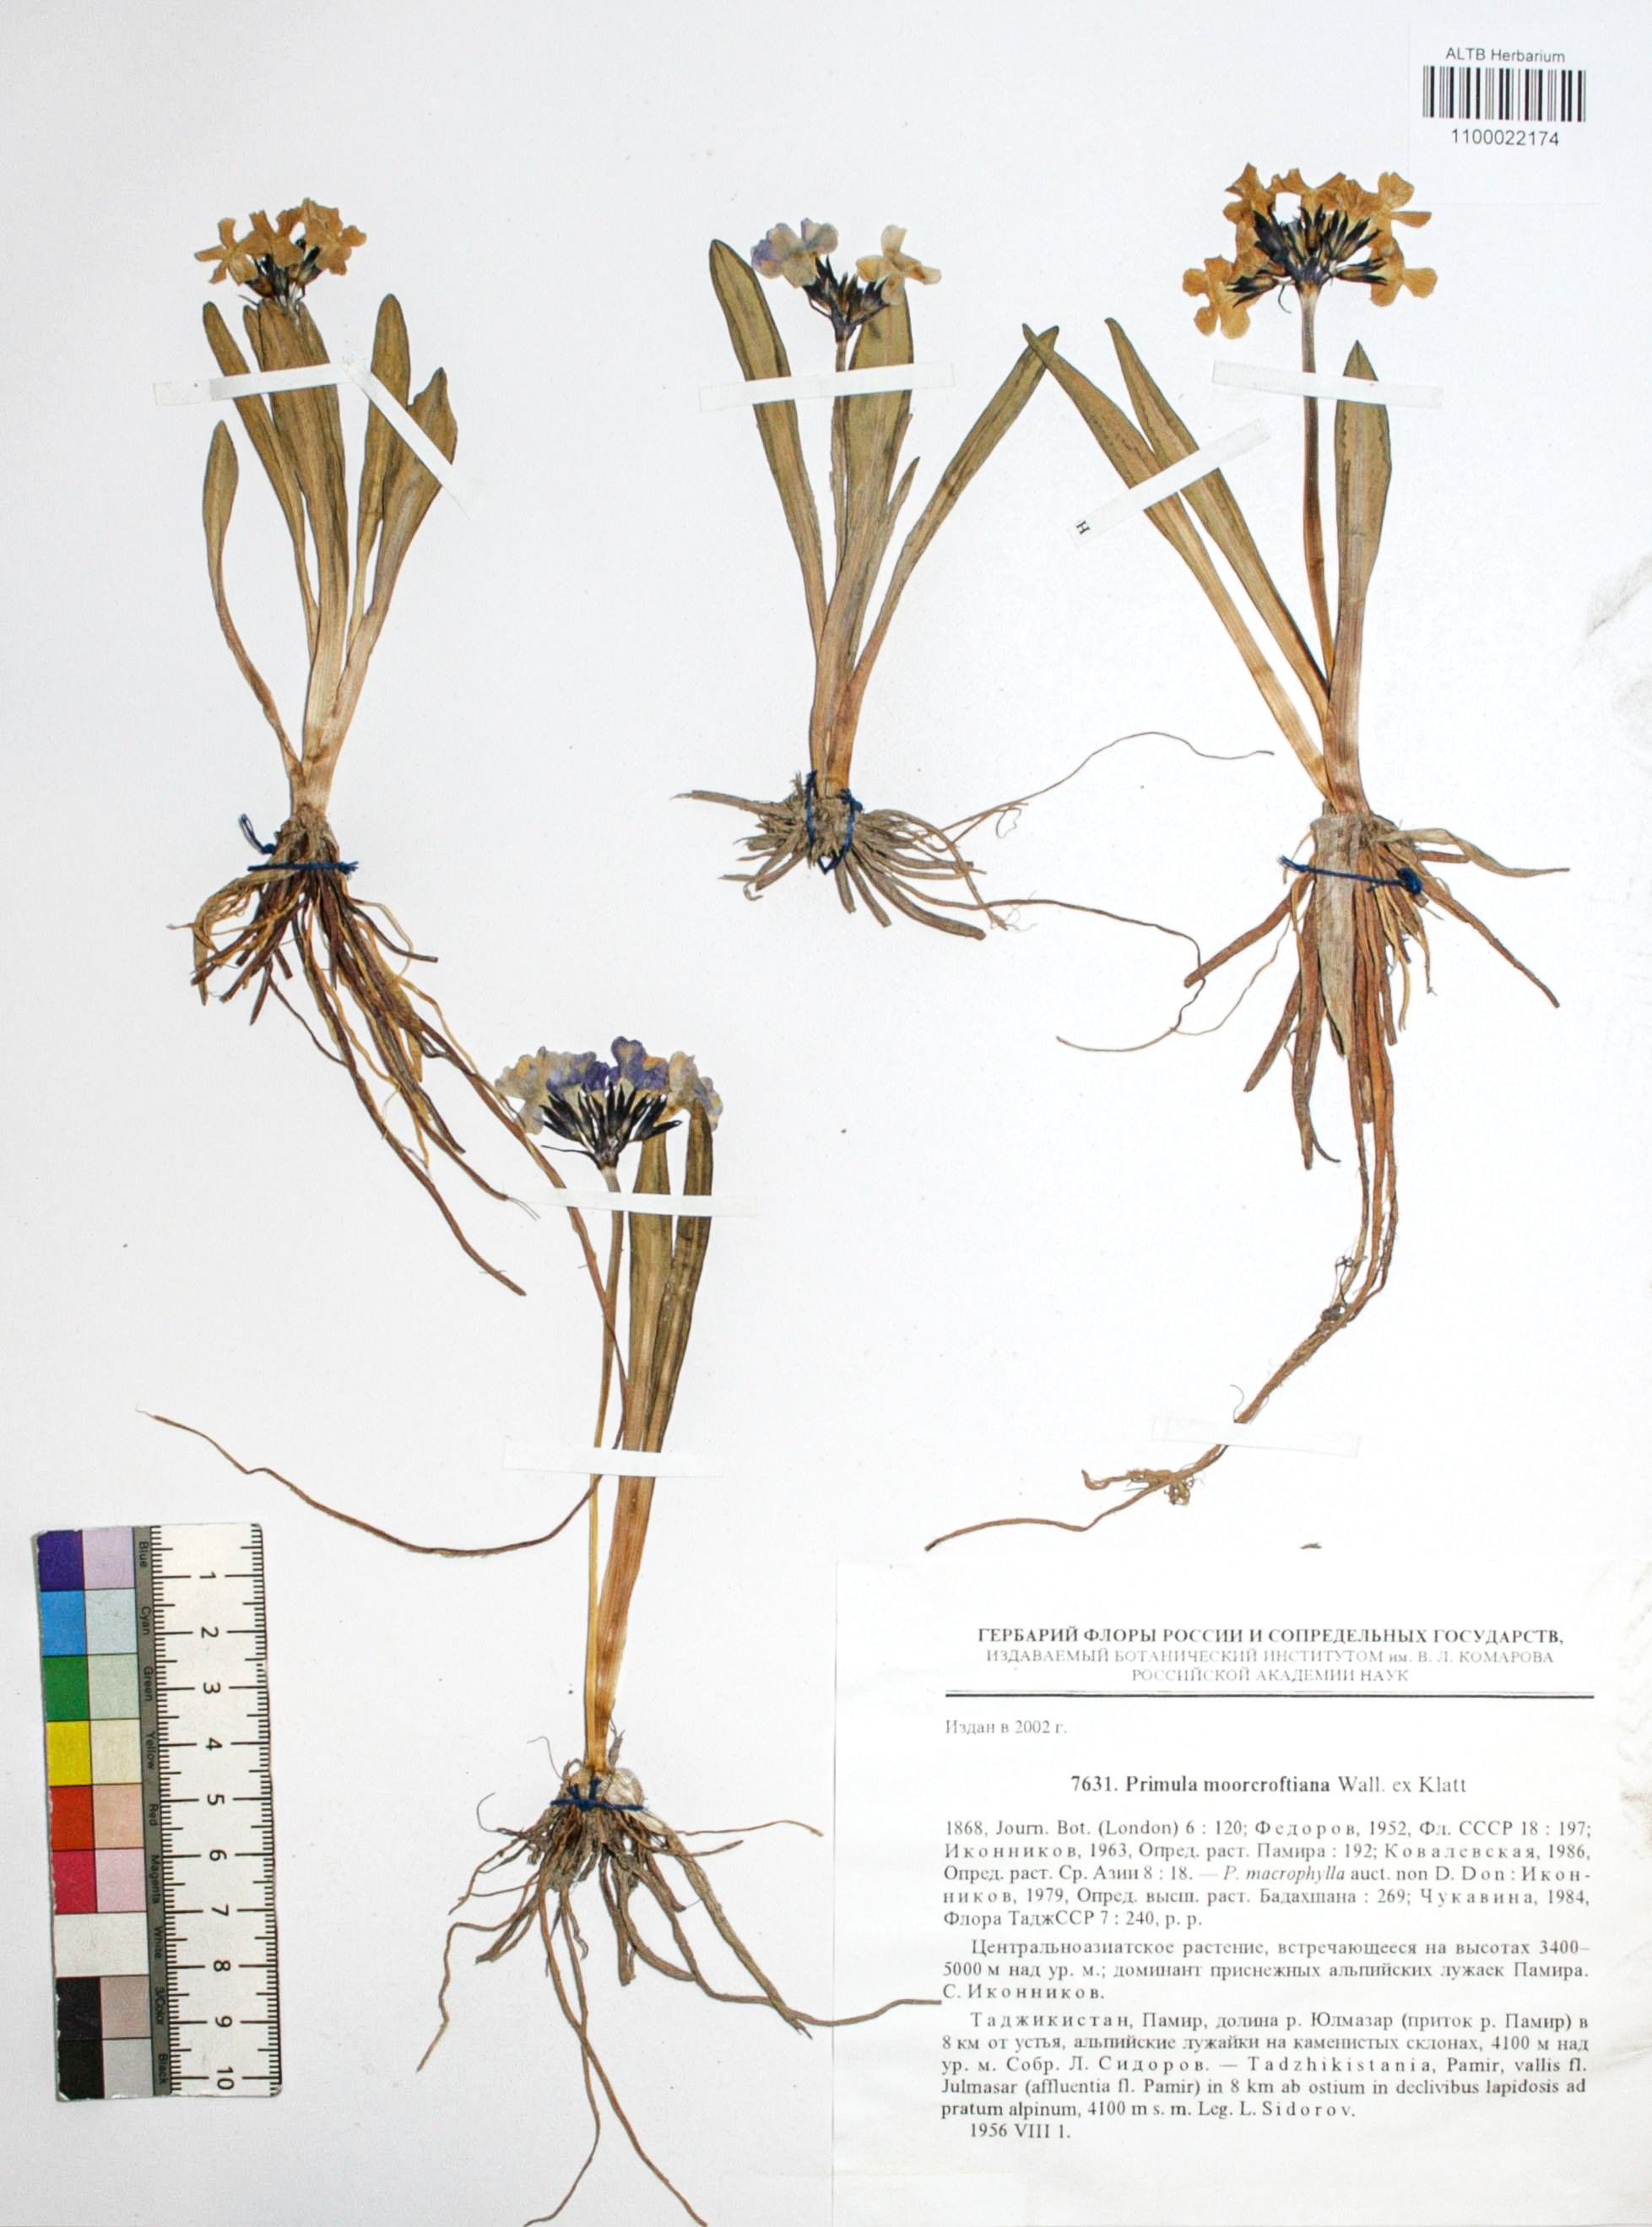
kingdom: Plantae
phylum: Tracheophyta
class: Magnoliopsida
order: Ericales
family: Primulaceae
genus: Primula
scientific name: Primula macrophylla
